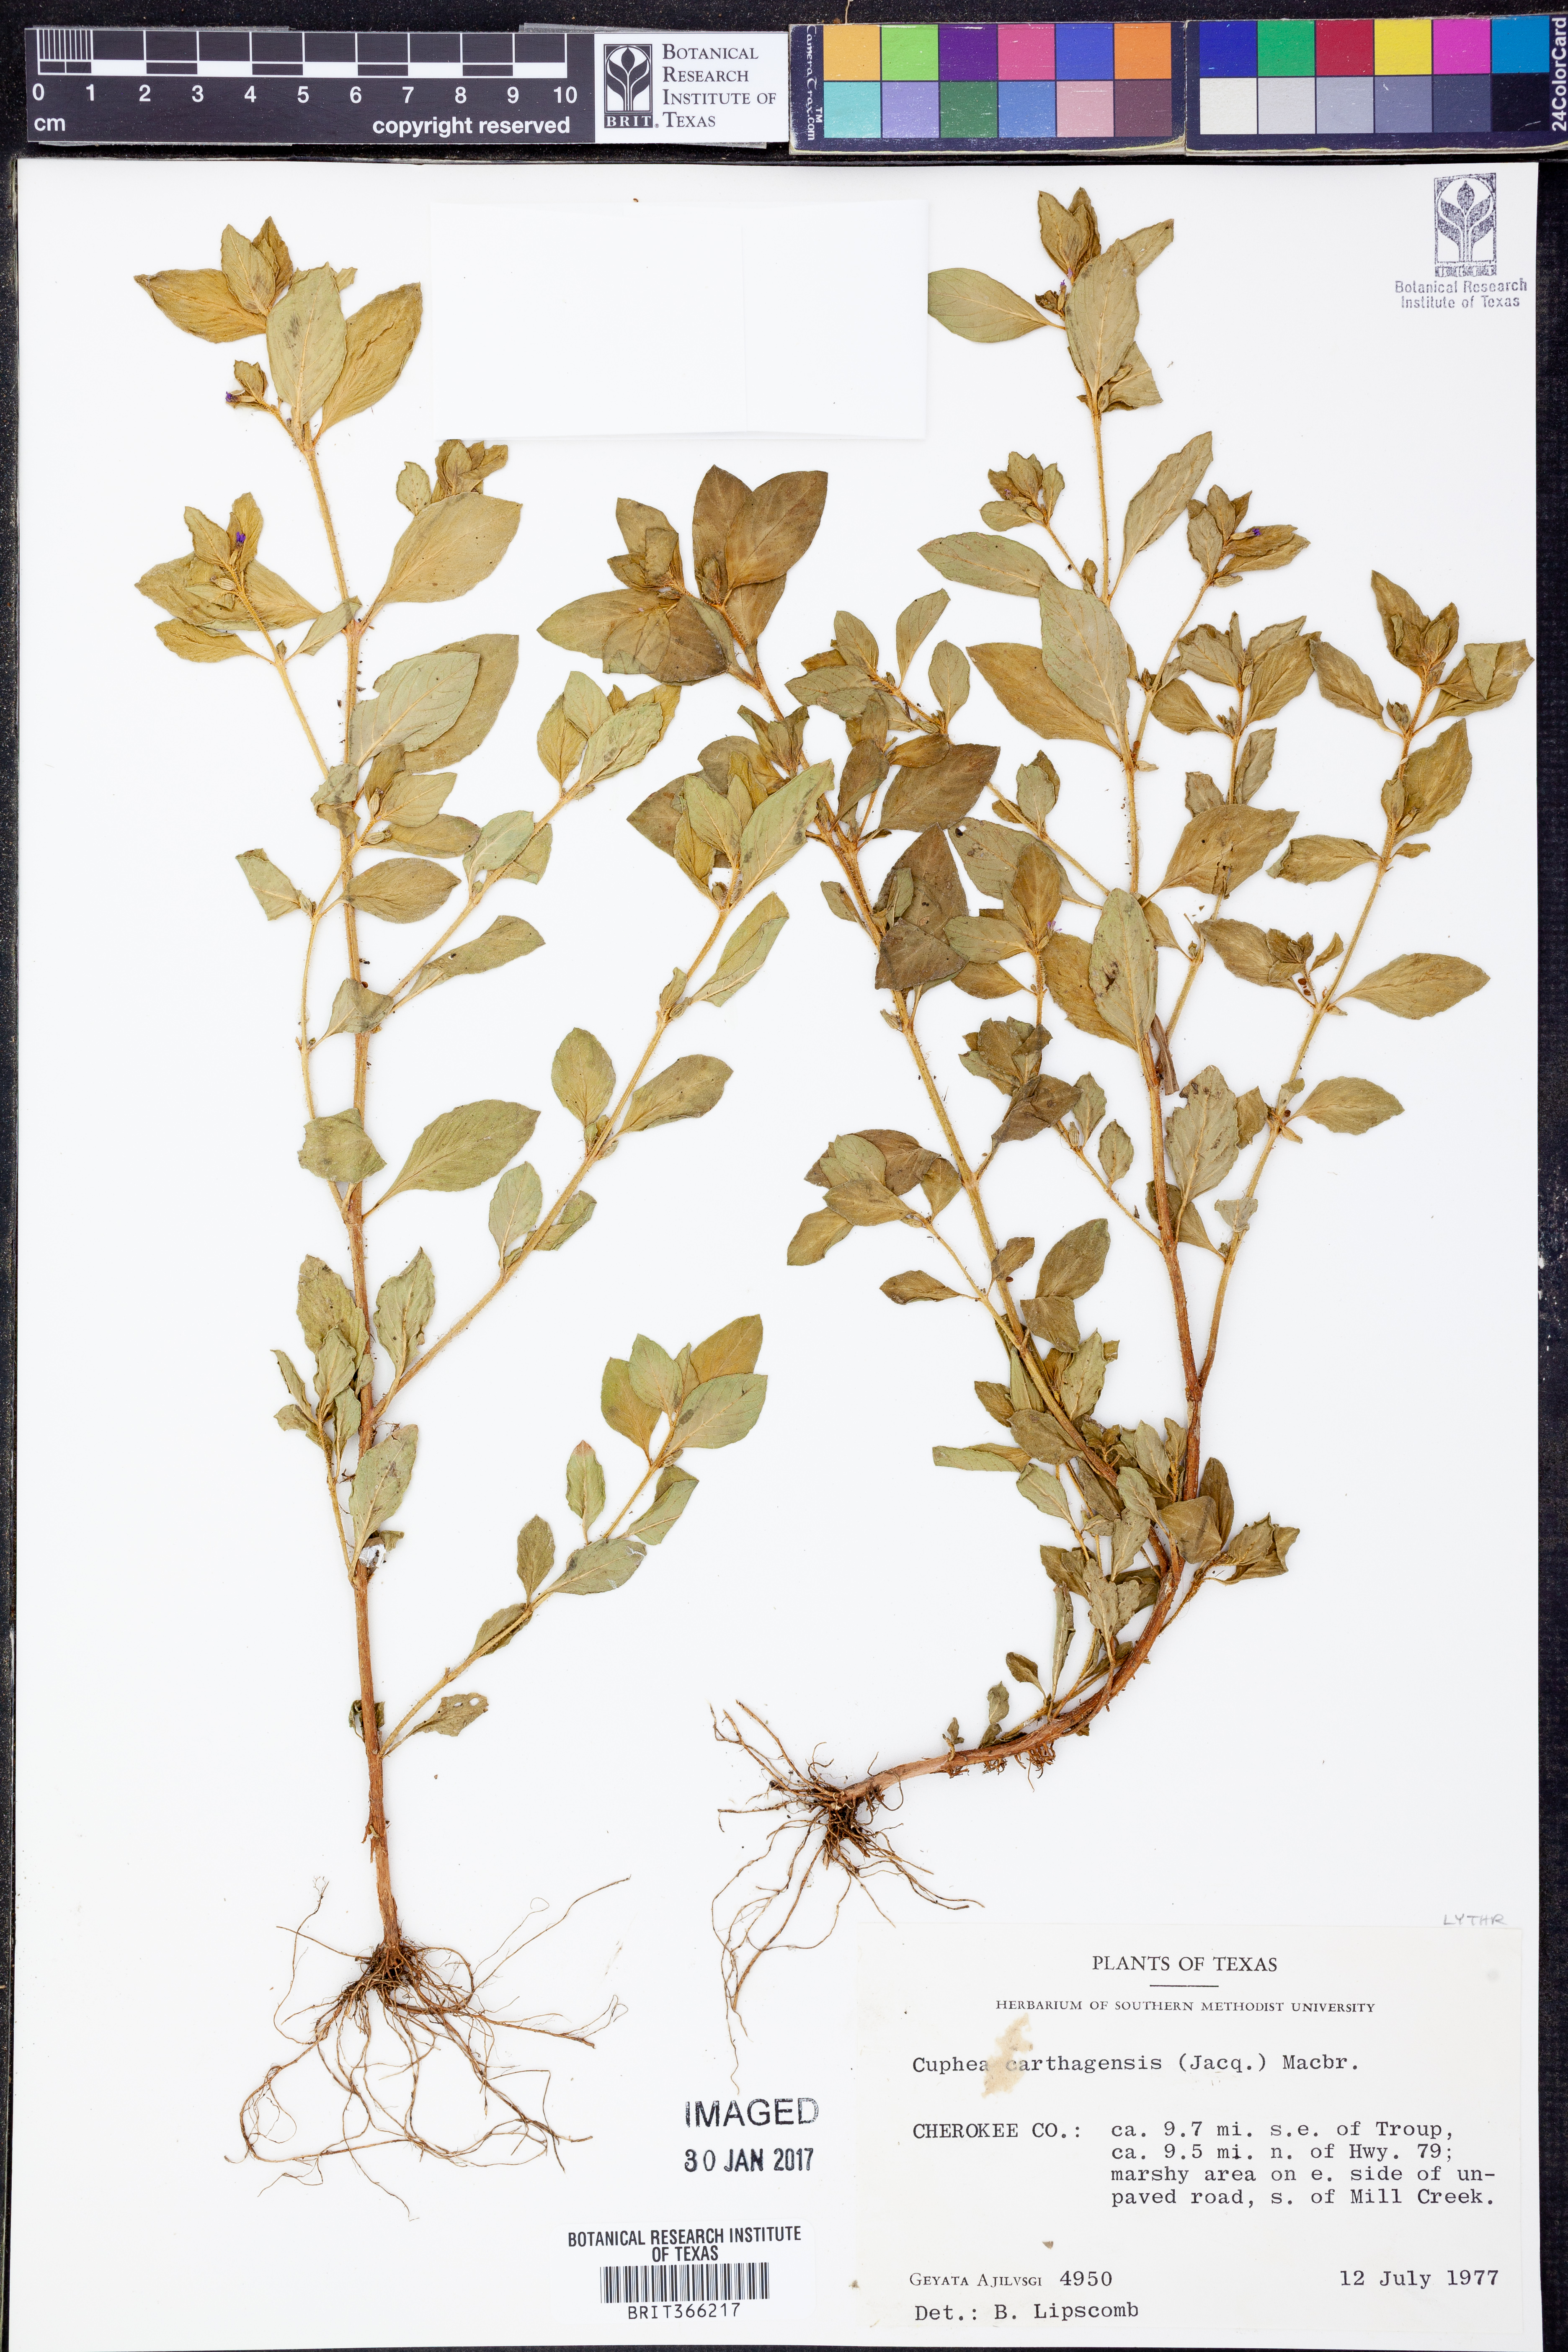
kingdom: Plantae
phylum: Tracheophyta
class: Magnoliopsida
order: Myrtales
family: Lythraceae
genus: Cuphea
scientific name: Cuphea carthagenensis
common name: Colombian waxweed
